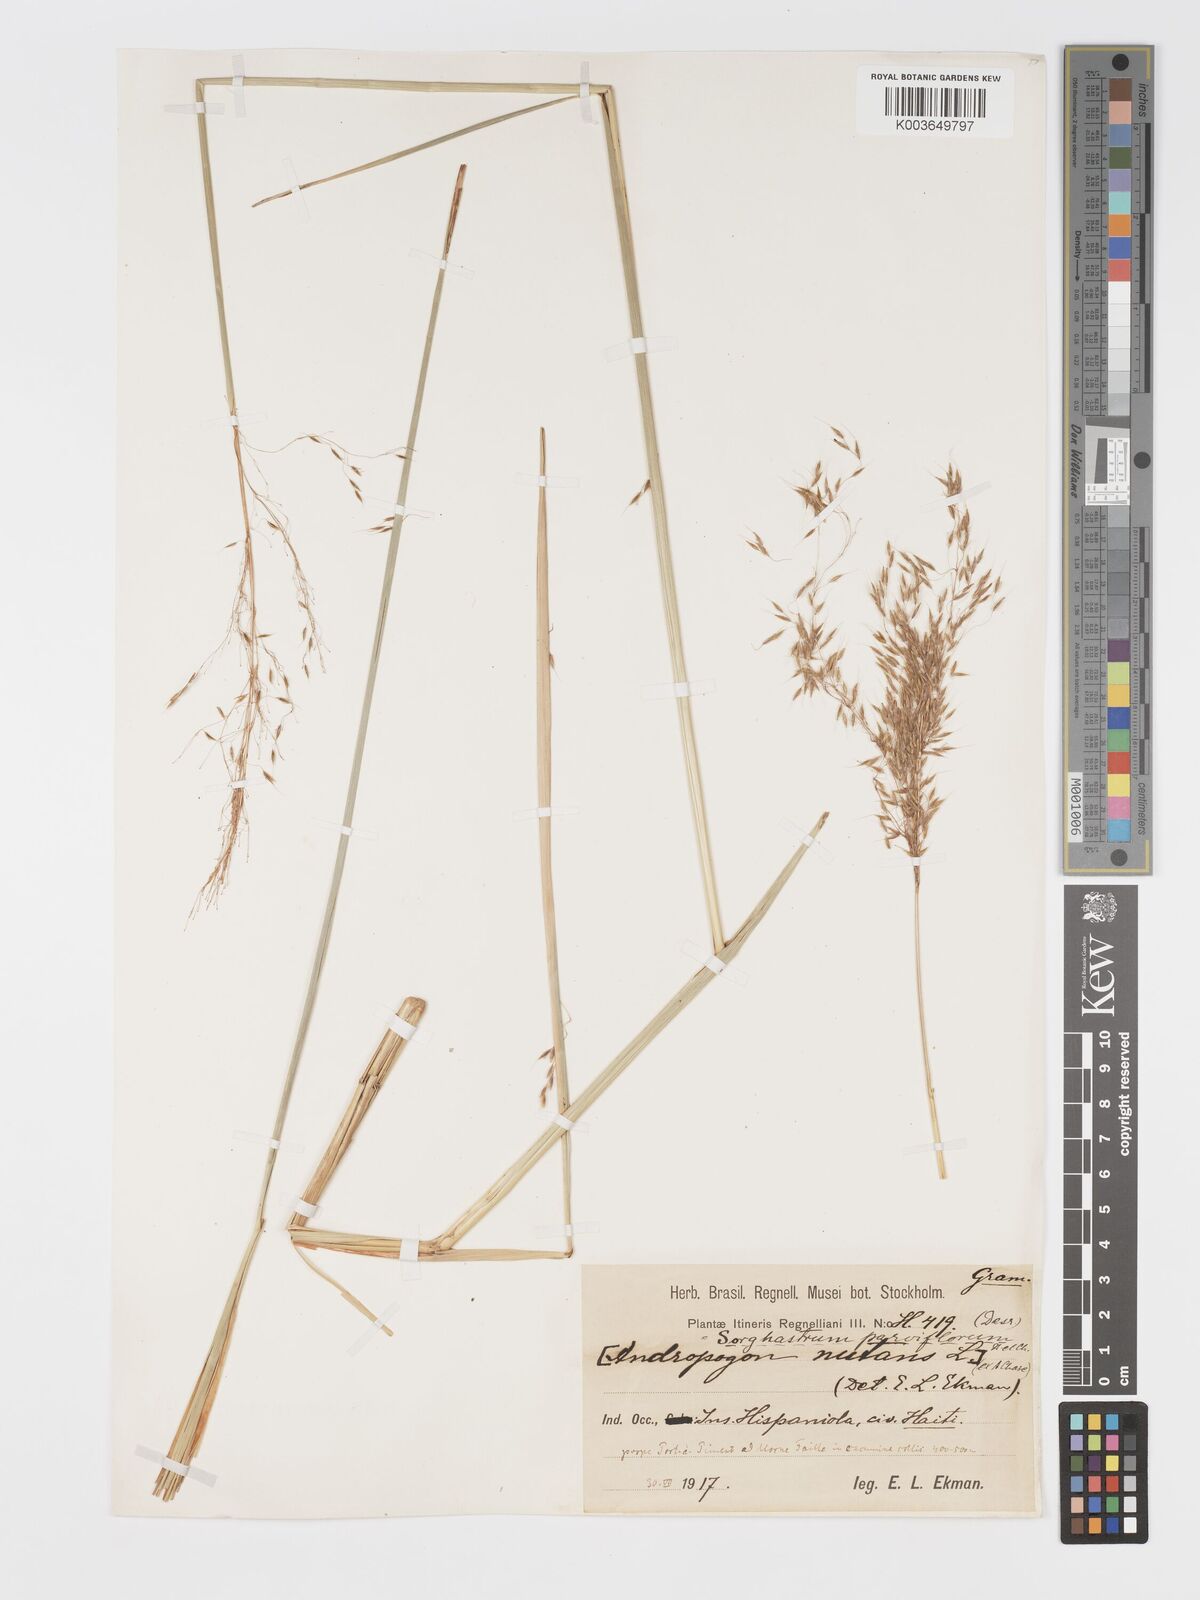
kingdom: Plantae
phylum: Tracheophyta
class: Liliopsida
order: Poales
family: Poaceae
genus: Sorghastrum
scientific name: Sorghastrum setosum
